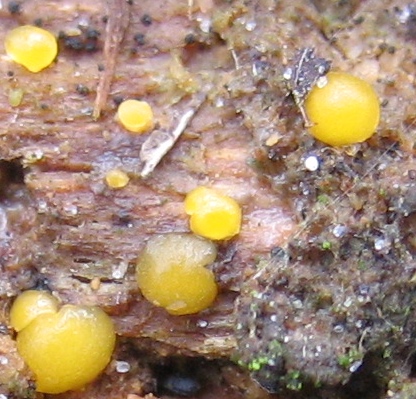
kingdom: Fungi
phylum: Basidiomycota
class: Dacrymycetes
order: Dacrymycetales
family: Dacrymycetaceae
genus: Dacrymyces
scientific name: Dacrymyces stillatus
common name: almindelig tåresvamp
